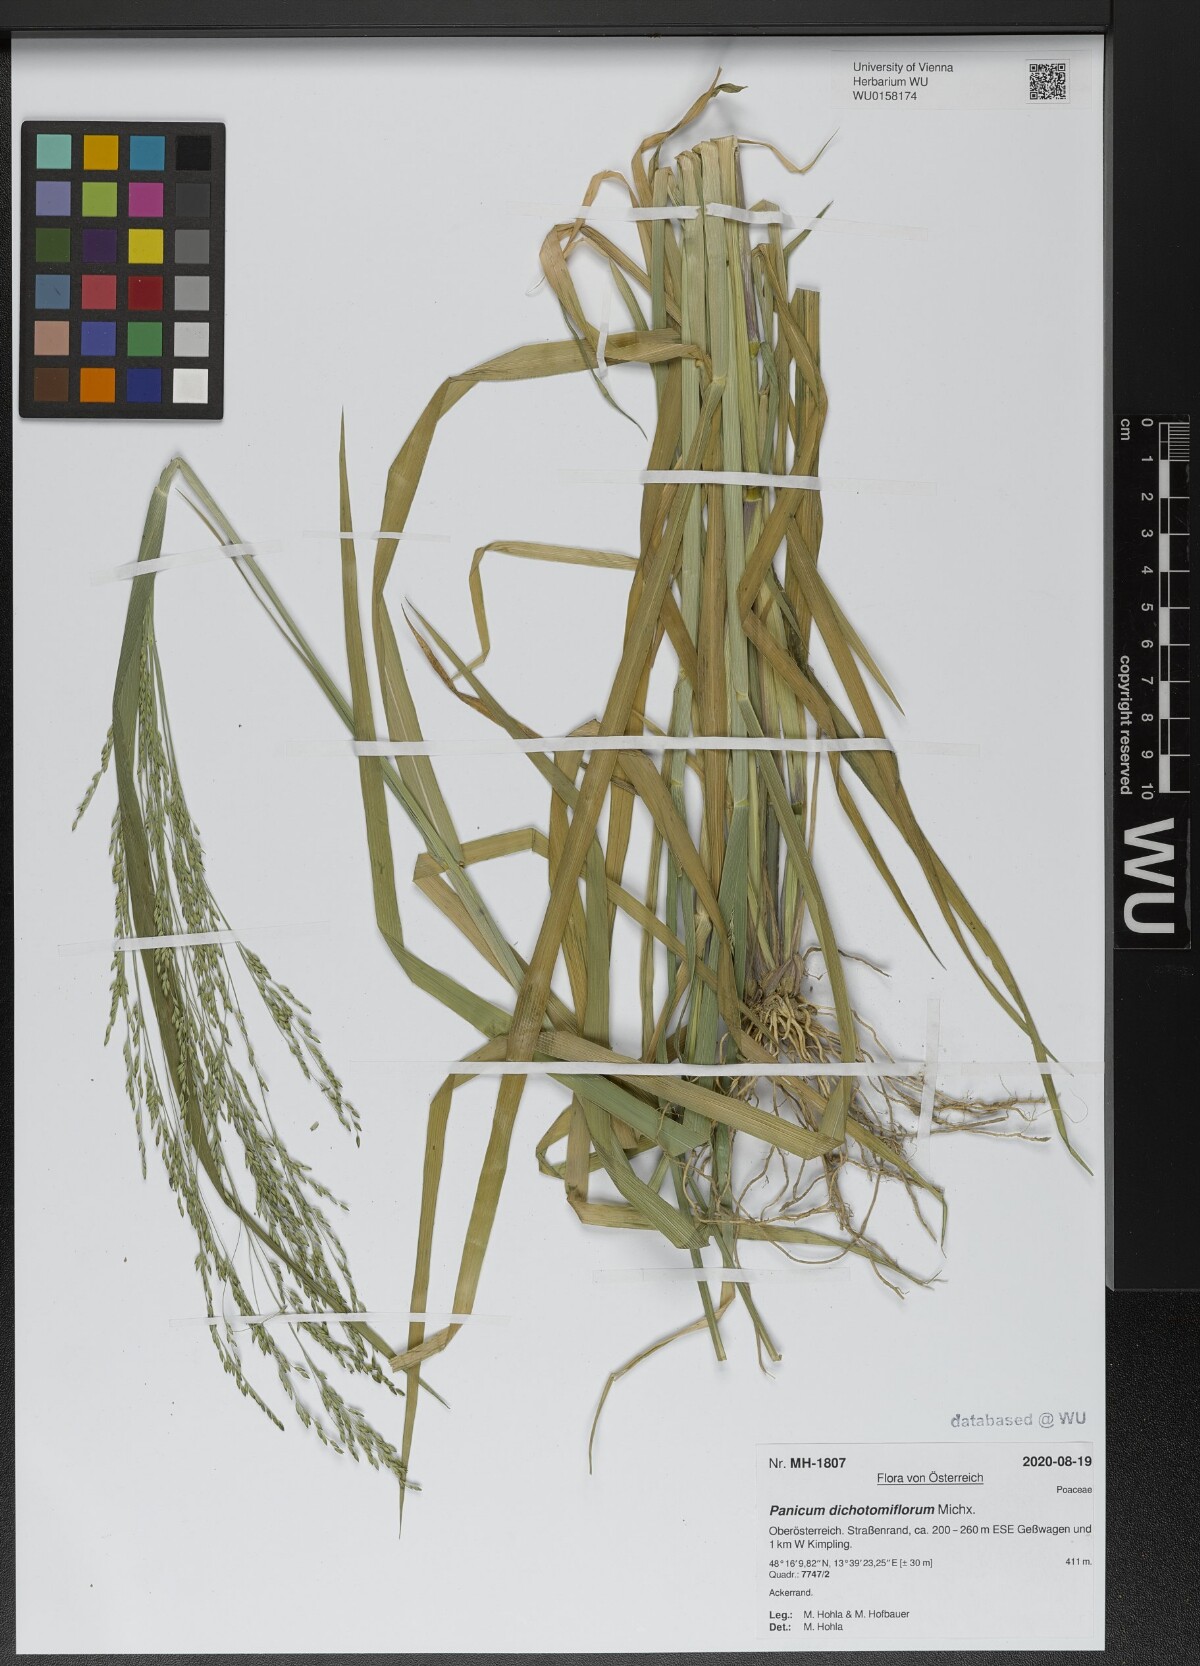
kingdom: Plantae
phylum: Tracheophyta
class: Liliopsida
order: Poales
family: Poaceae
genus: Panicum
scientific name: Panicum dichotomiflorum
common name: Autumn millet
